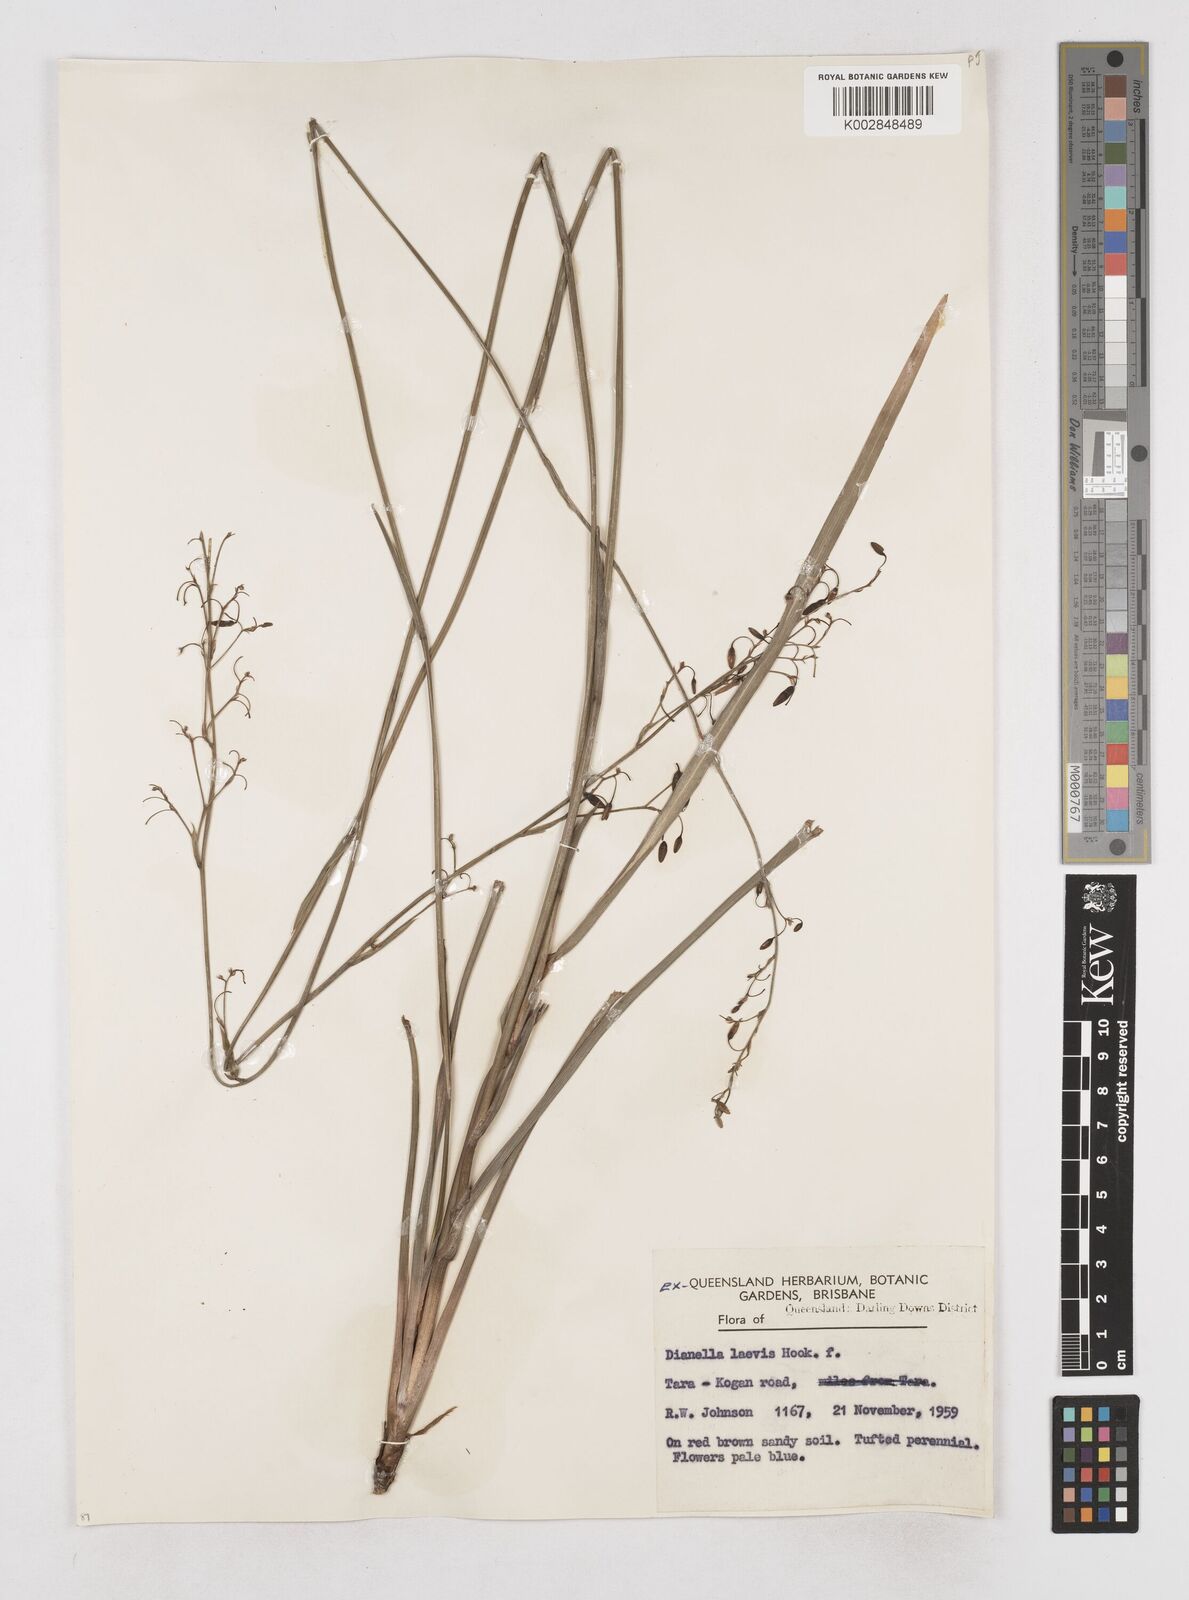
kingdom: Plantae
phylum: Tracheophyta
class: Liliopsida
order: Asparagales
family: Asphodelaceae
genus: Dianella
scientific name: Dianella longifolia
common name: Blue flax-lily
